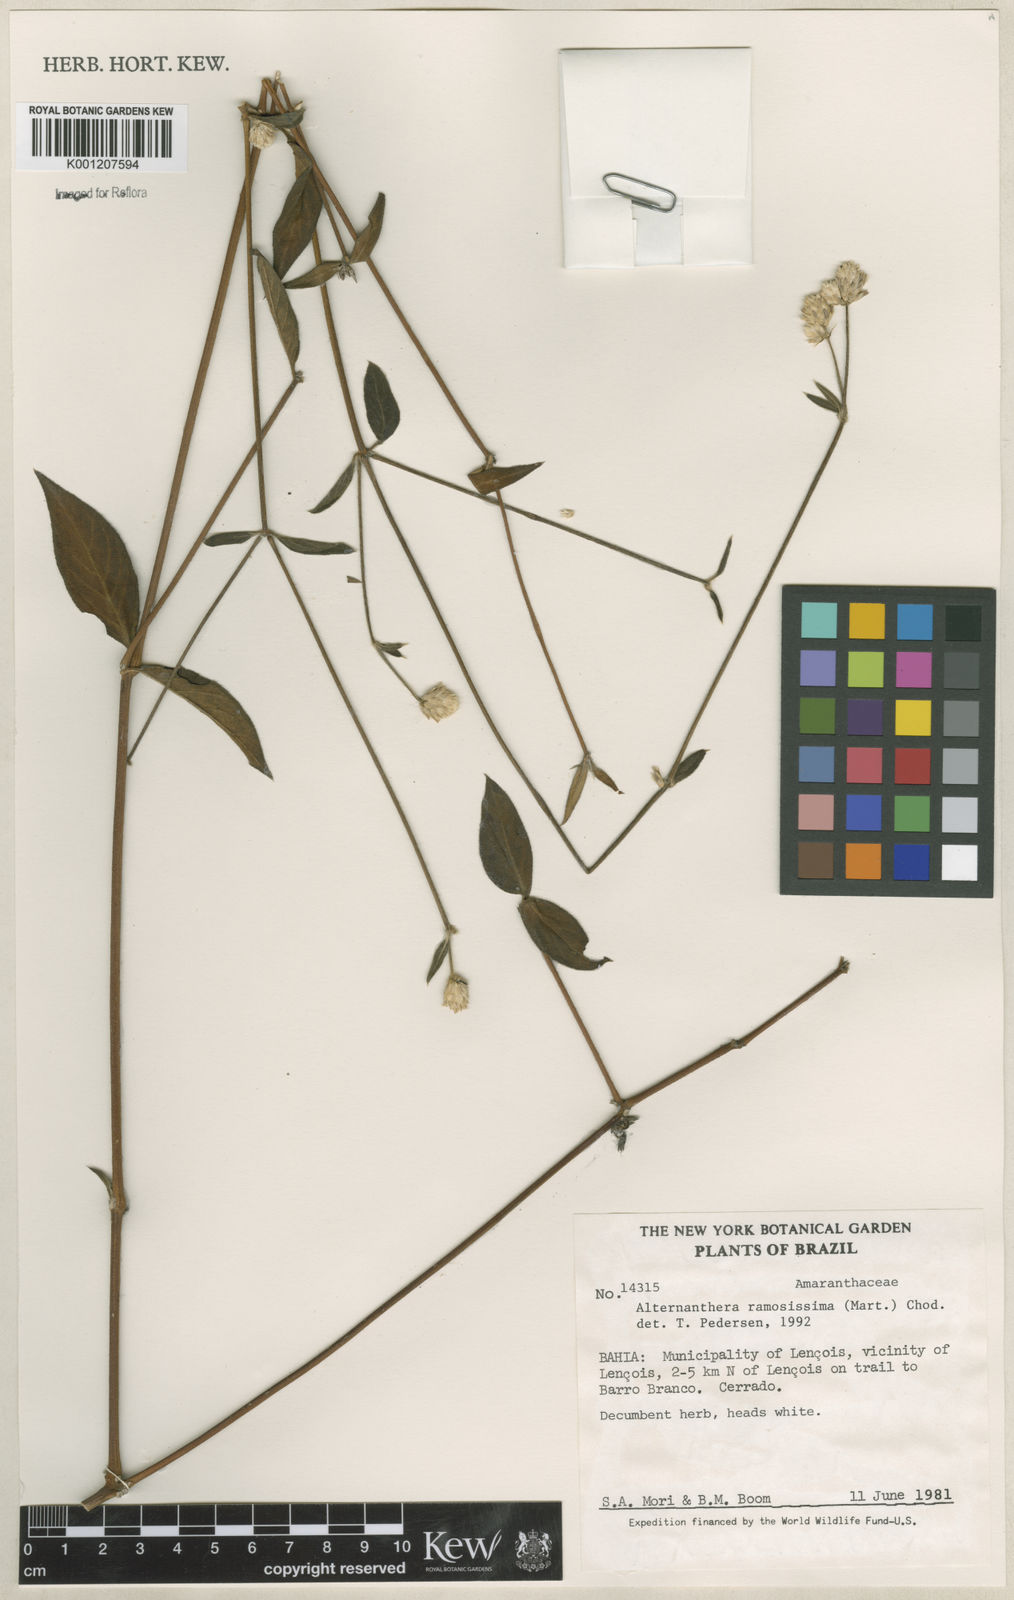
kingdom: Plantae
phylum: Tracheophyta
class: Magnoliopsida
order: Caryophyllales
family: Amaranthaceae
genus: Alternanthera
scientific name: Alternanthera ramosissima
